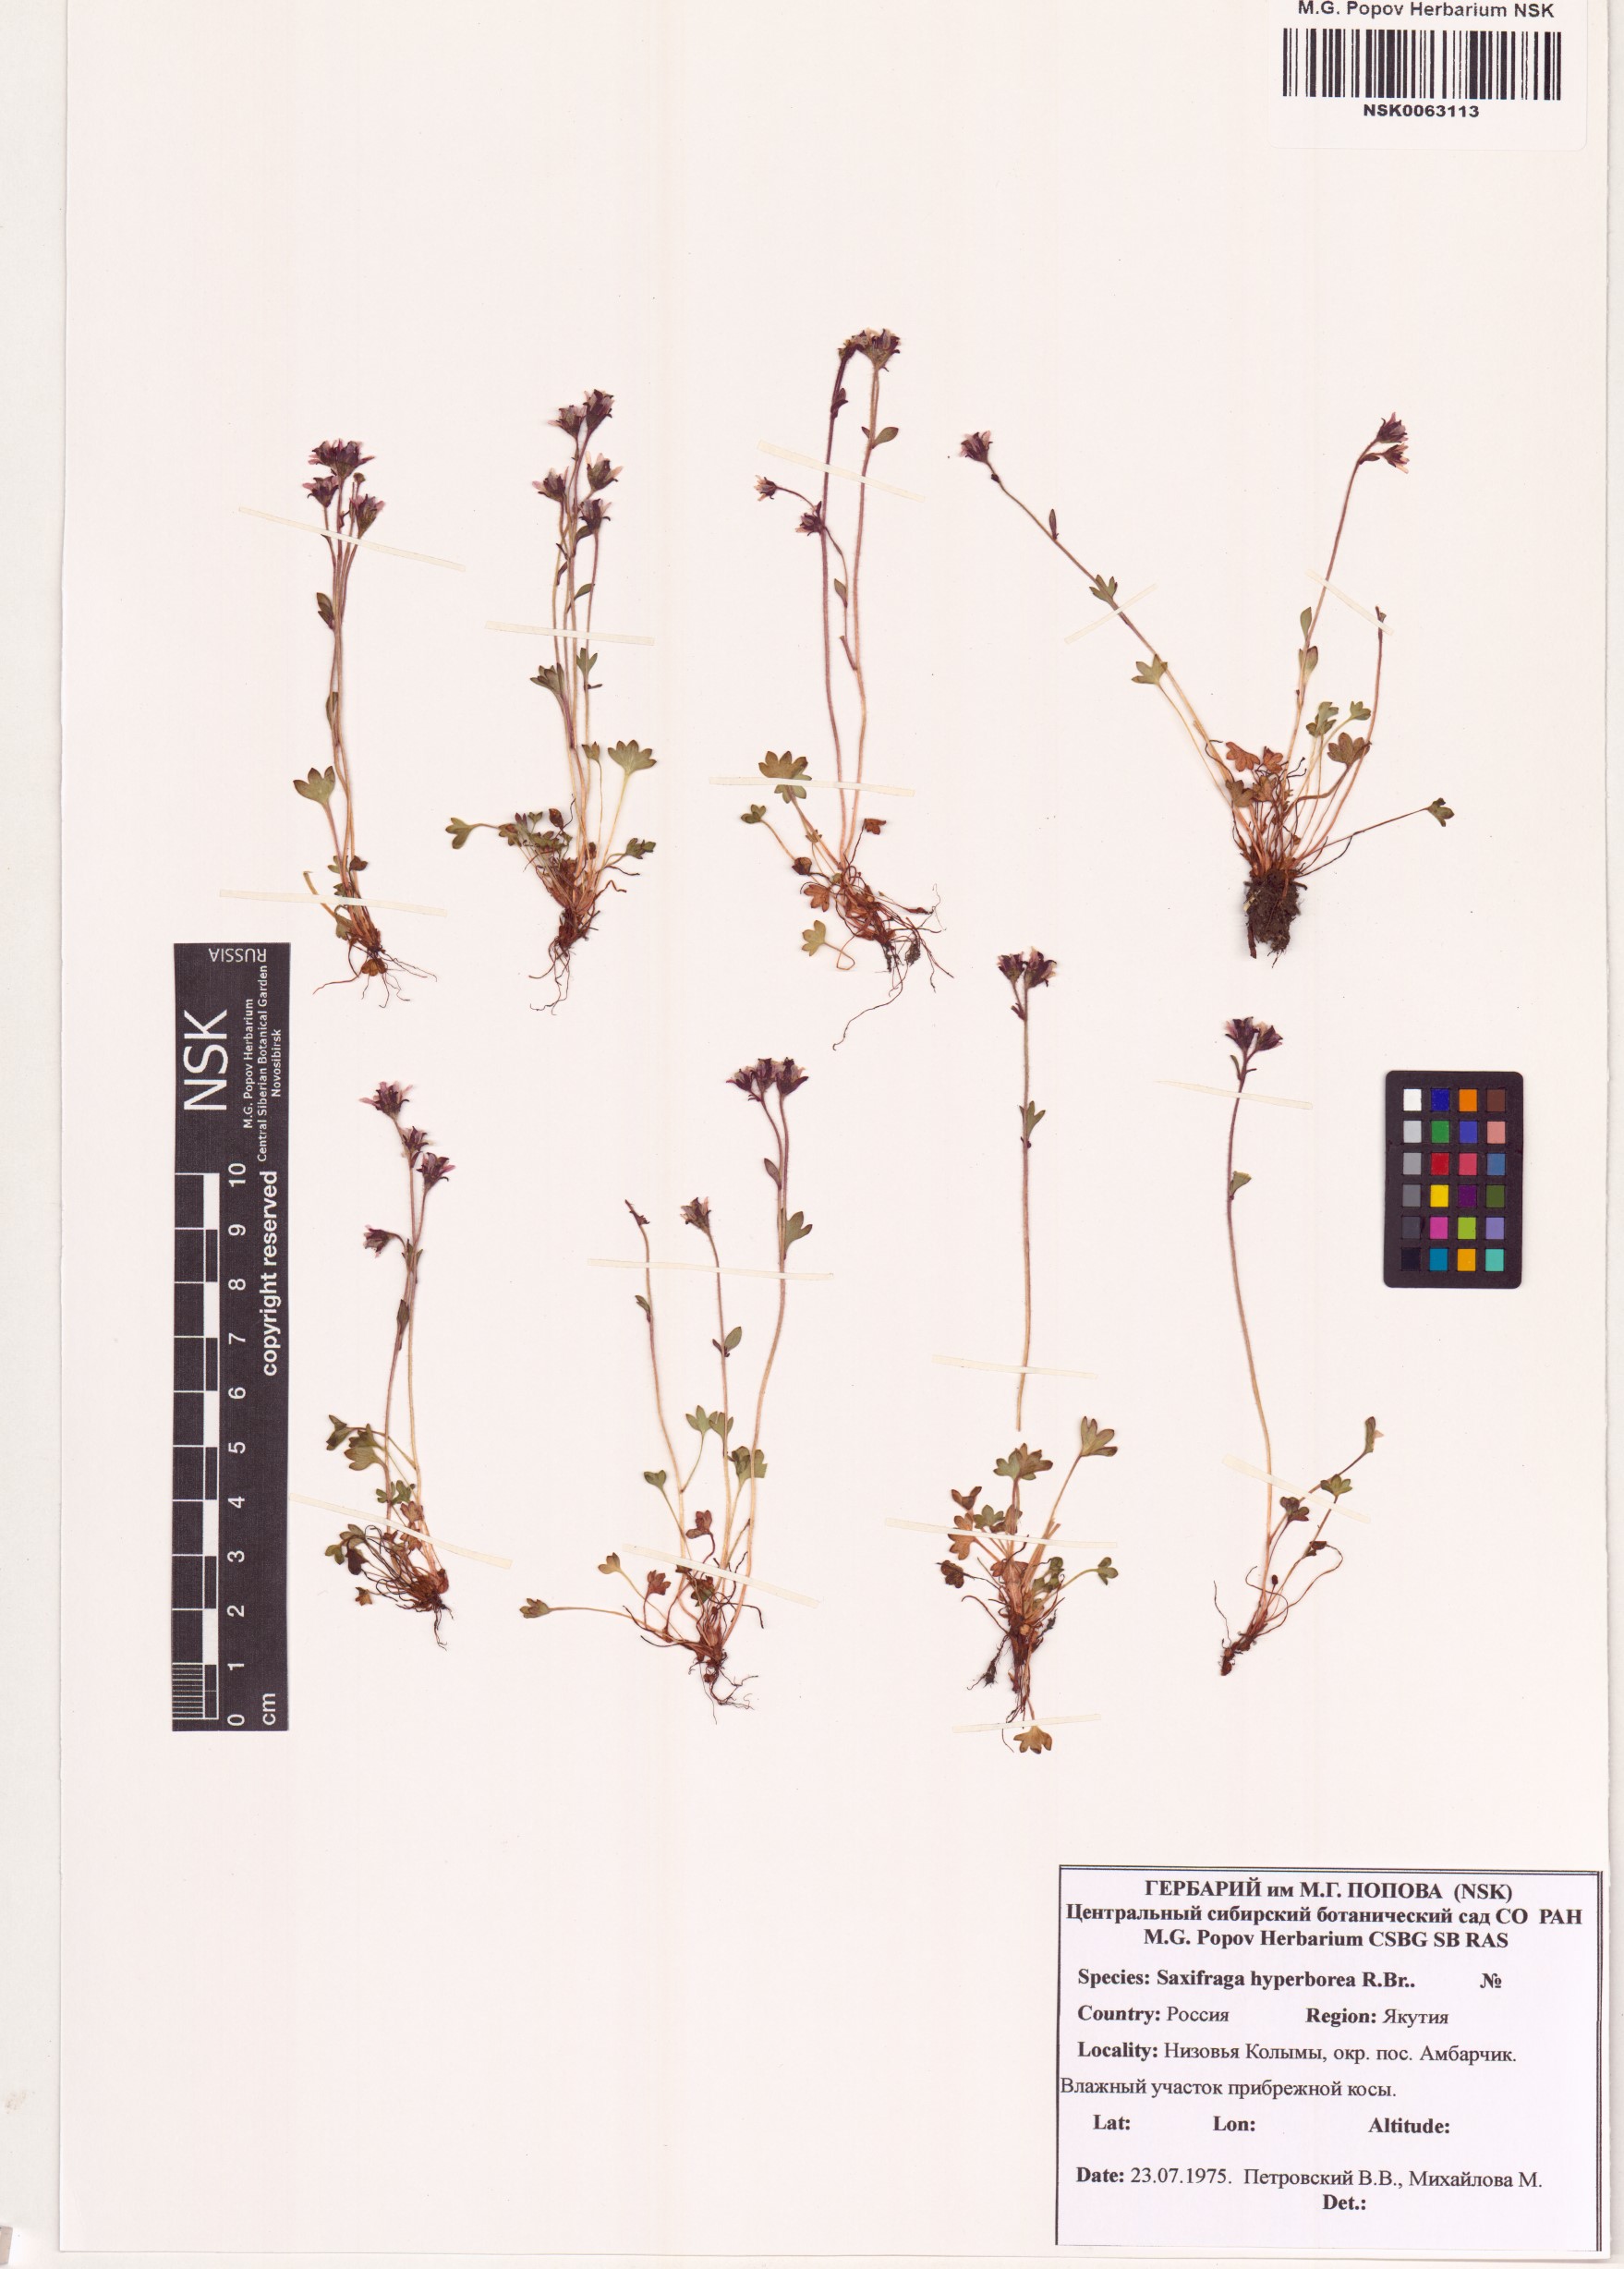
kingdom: Plantae
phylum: Tracheophyta
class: Magnoliopsida
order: Saxifragales
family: Saxifragaceae
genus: Saxifraga
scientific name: Saxifraga hyperborea
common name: Arctic saxifrage
